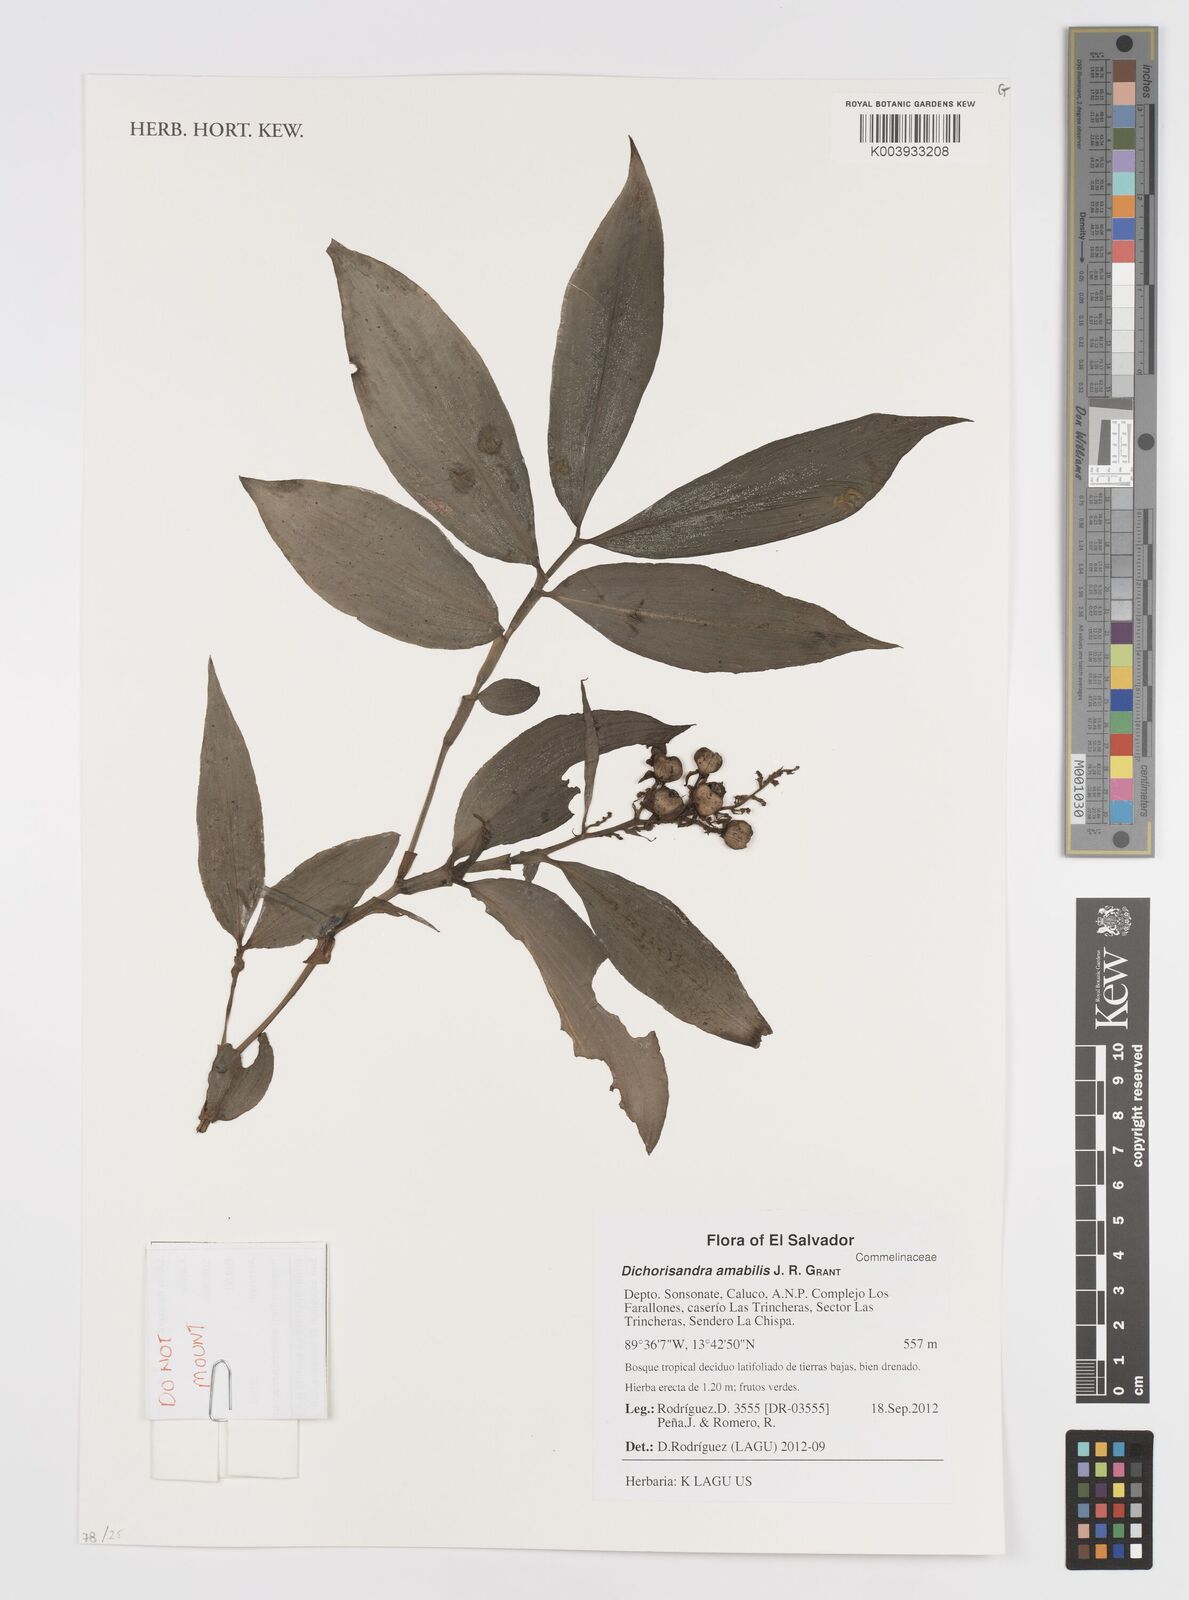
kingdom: Plantae
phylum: Tracheophyta
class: Liliopsida
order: Commelinales
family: Commelinaceae
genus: Dichorisandra
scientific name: Dichorisandra amabilis
